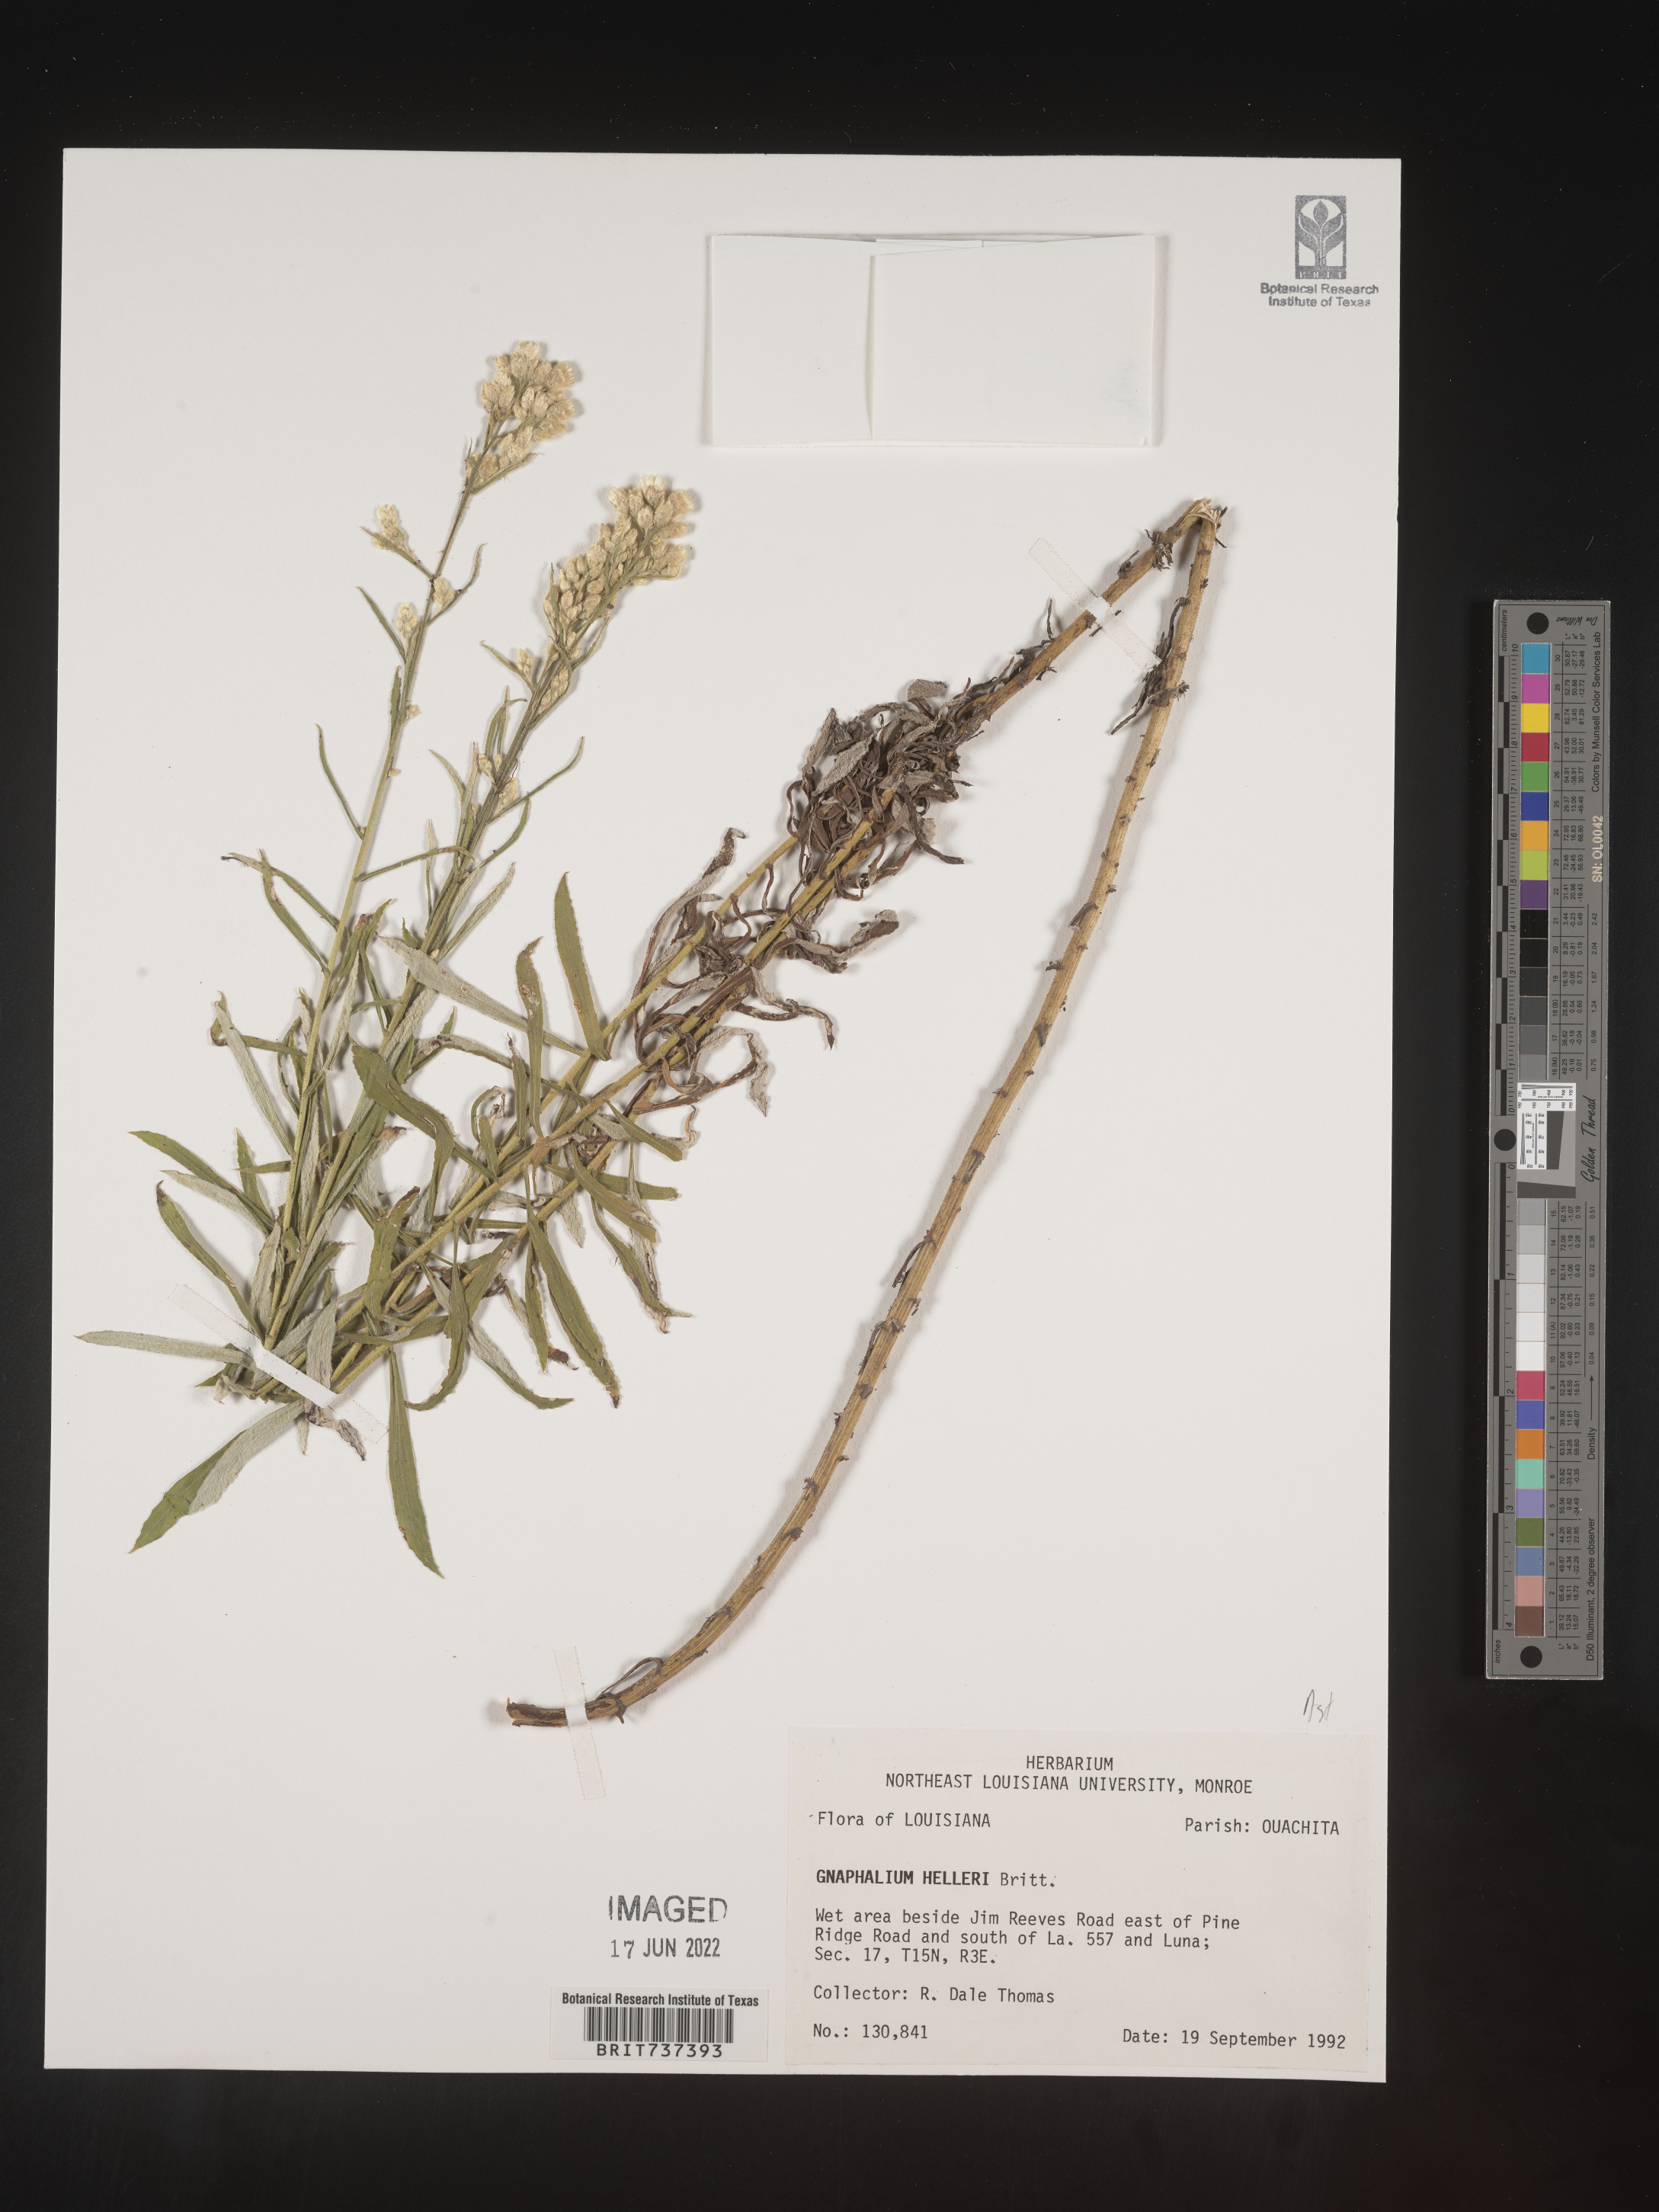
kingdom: Plantae
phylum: Tracheophyta
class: Magnoliopsida
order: Asterales
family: Asteraceae
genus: Pseudognaphalium
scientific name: Pseudognaphalium helleri
